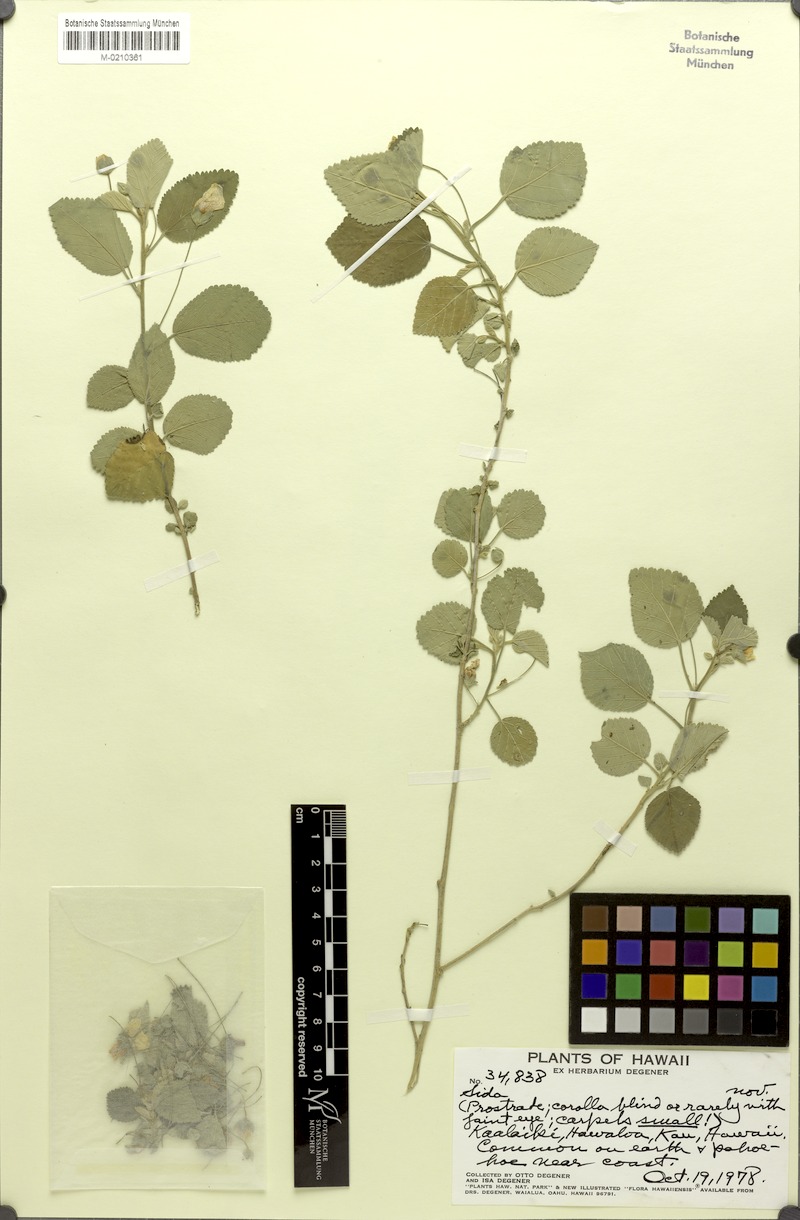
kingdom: Plantae
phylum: Tracheophyta
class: Magnoliopsida
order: Malvales
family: Malvaceae
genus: Sida
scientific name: Sida
